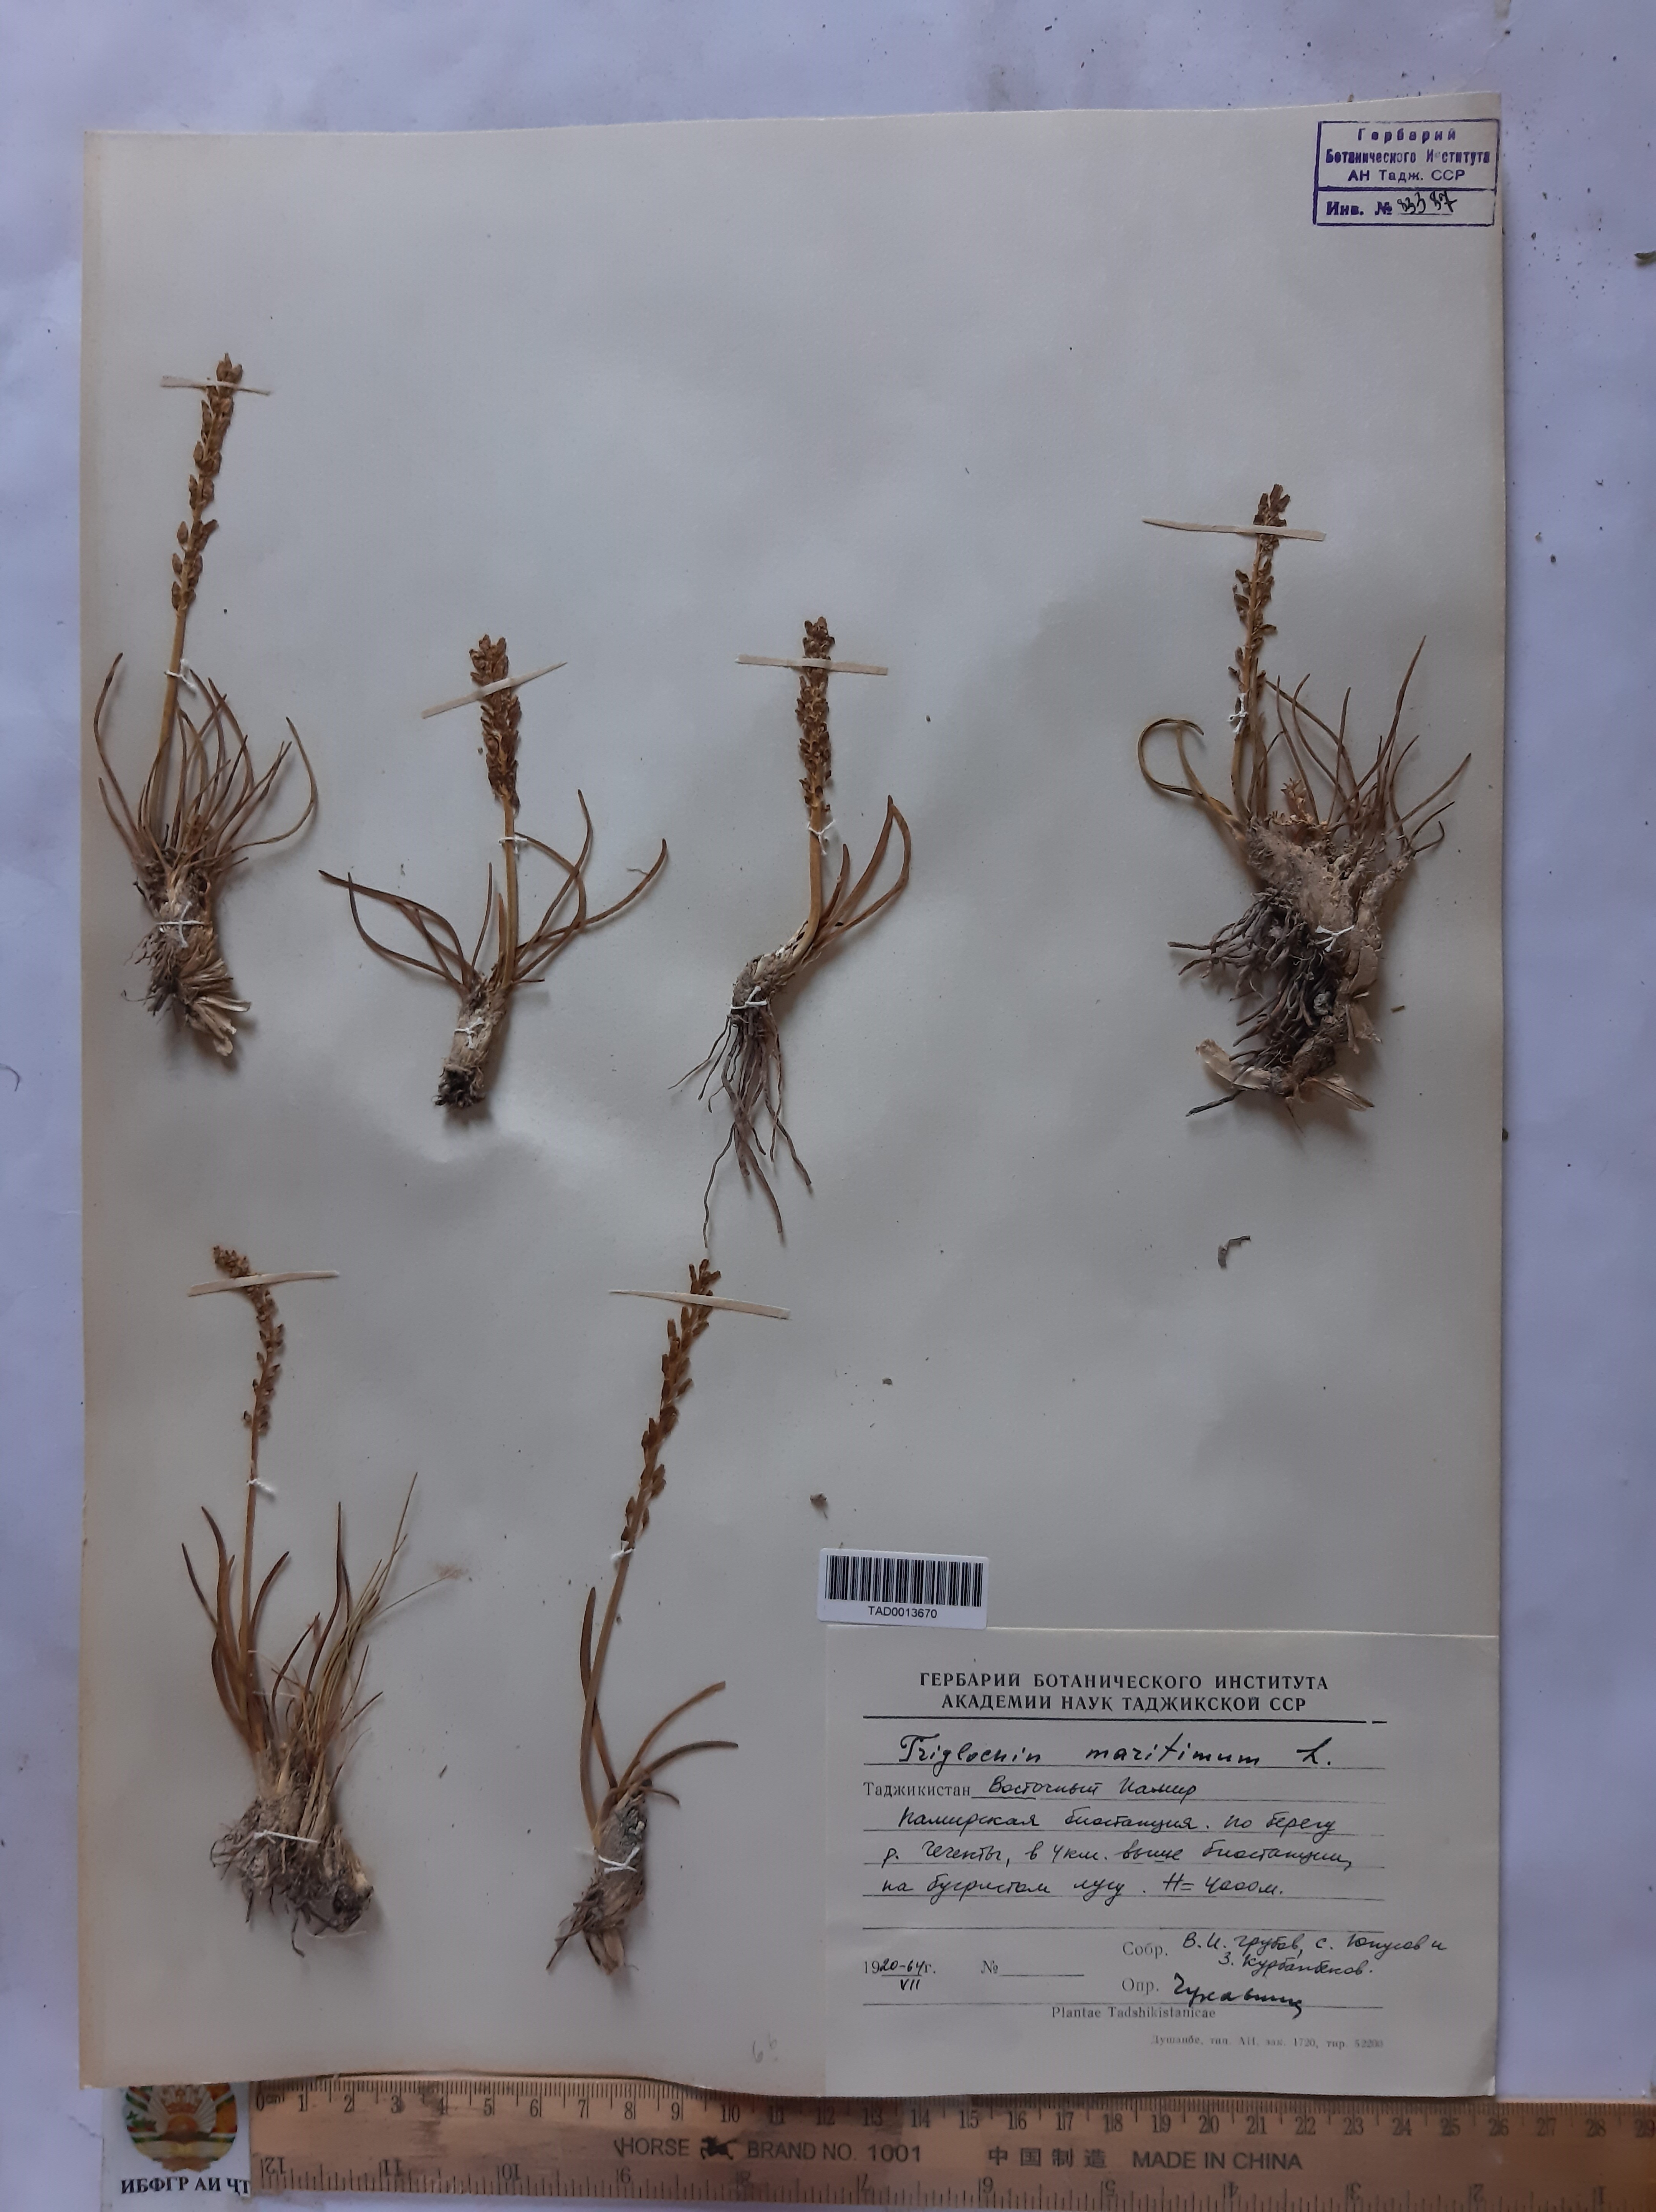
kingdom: Plantae
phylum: Tracheophyta
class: Liliopsida
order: Alismatales
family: Juncaginaceae
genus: Triglochin
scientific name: Triglochin maritima
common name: Sea arrowgrass
